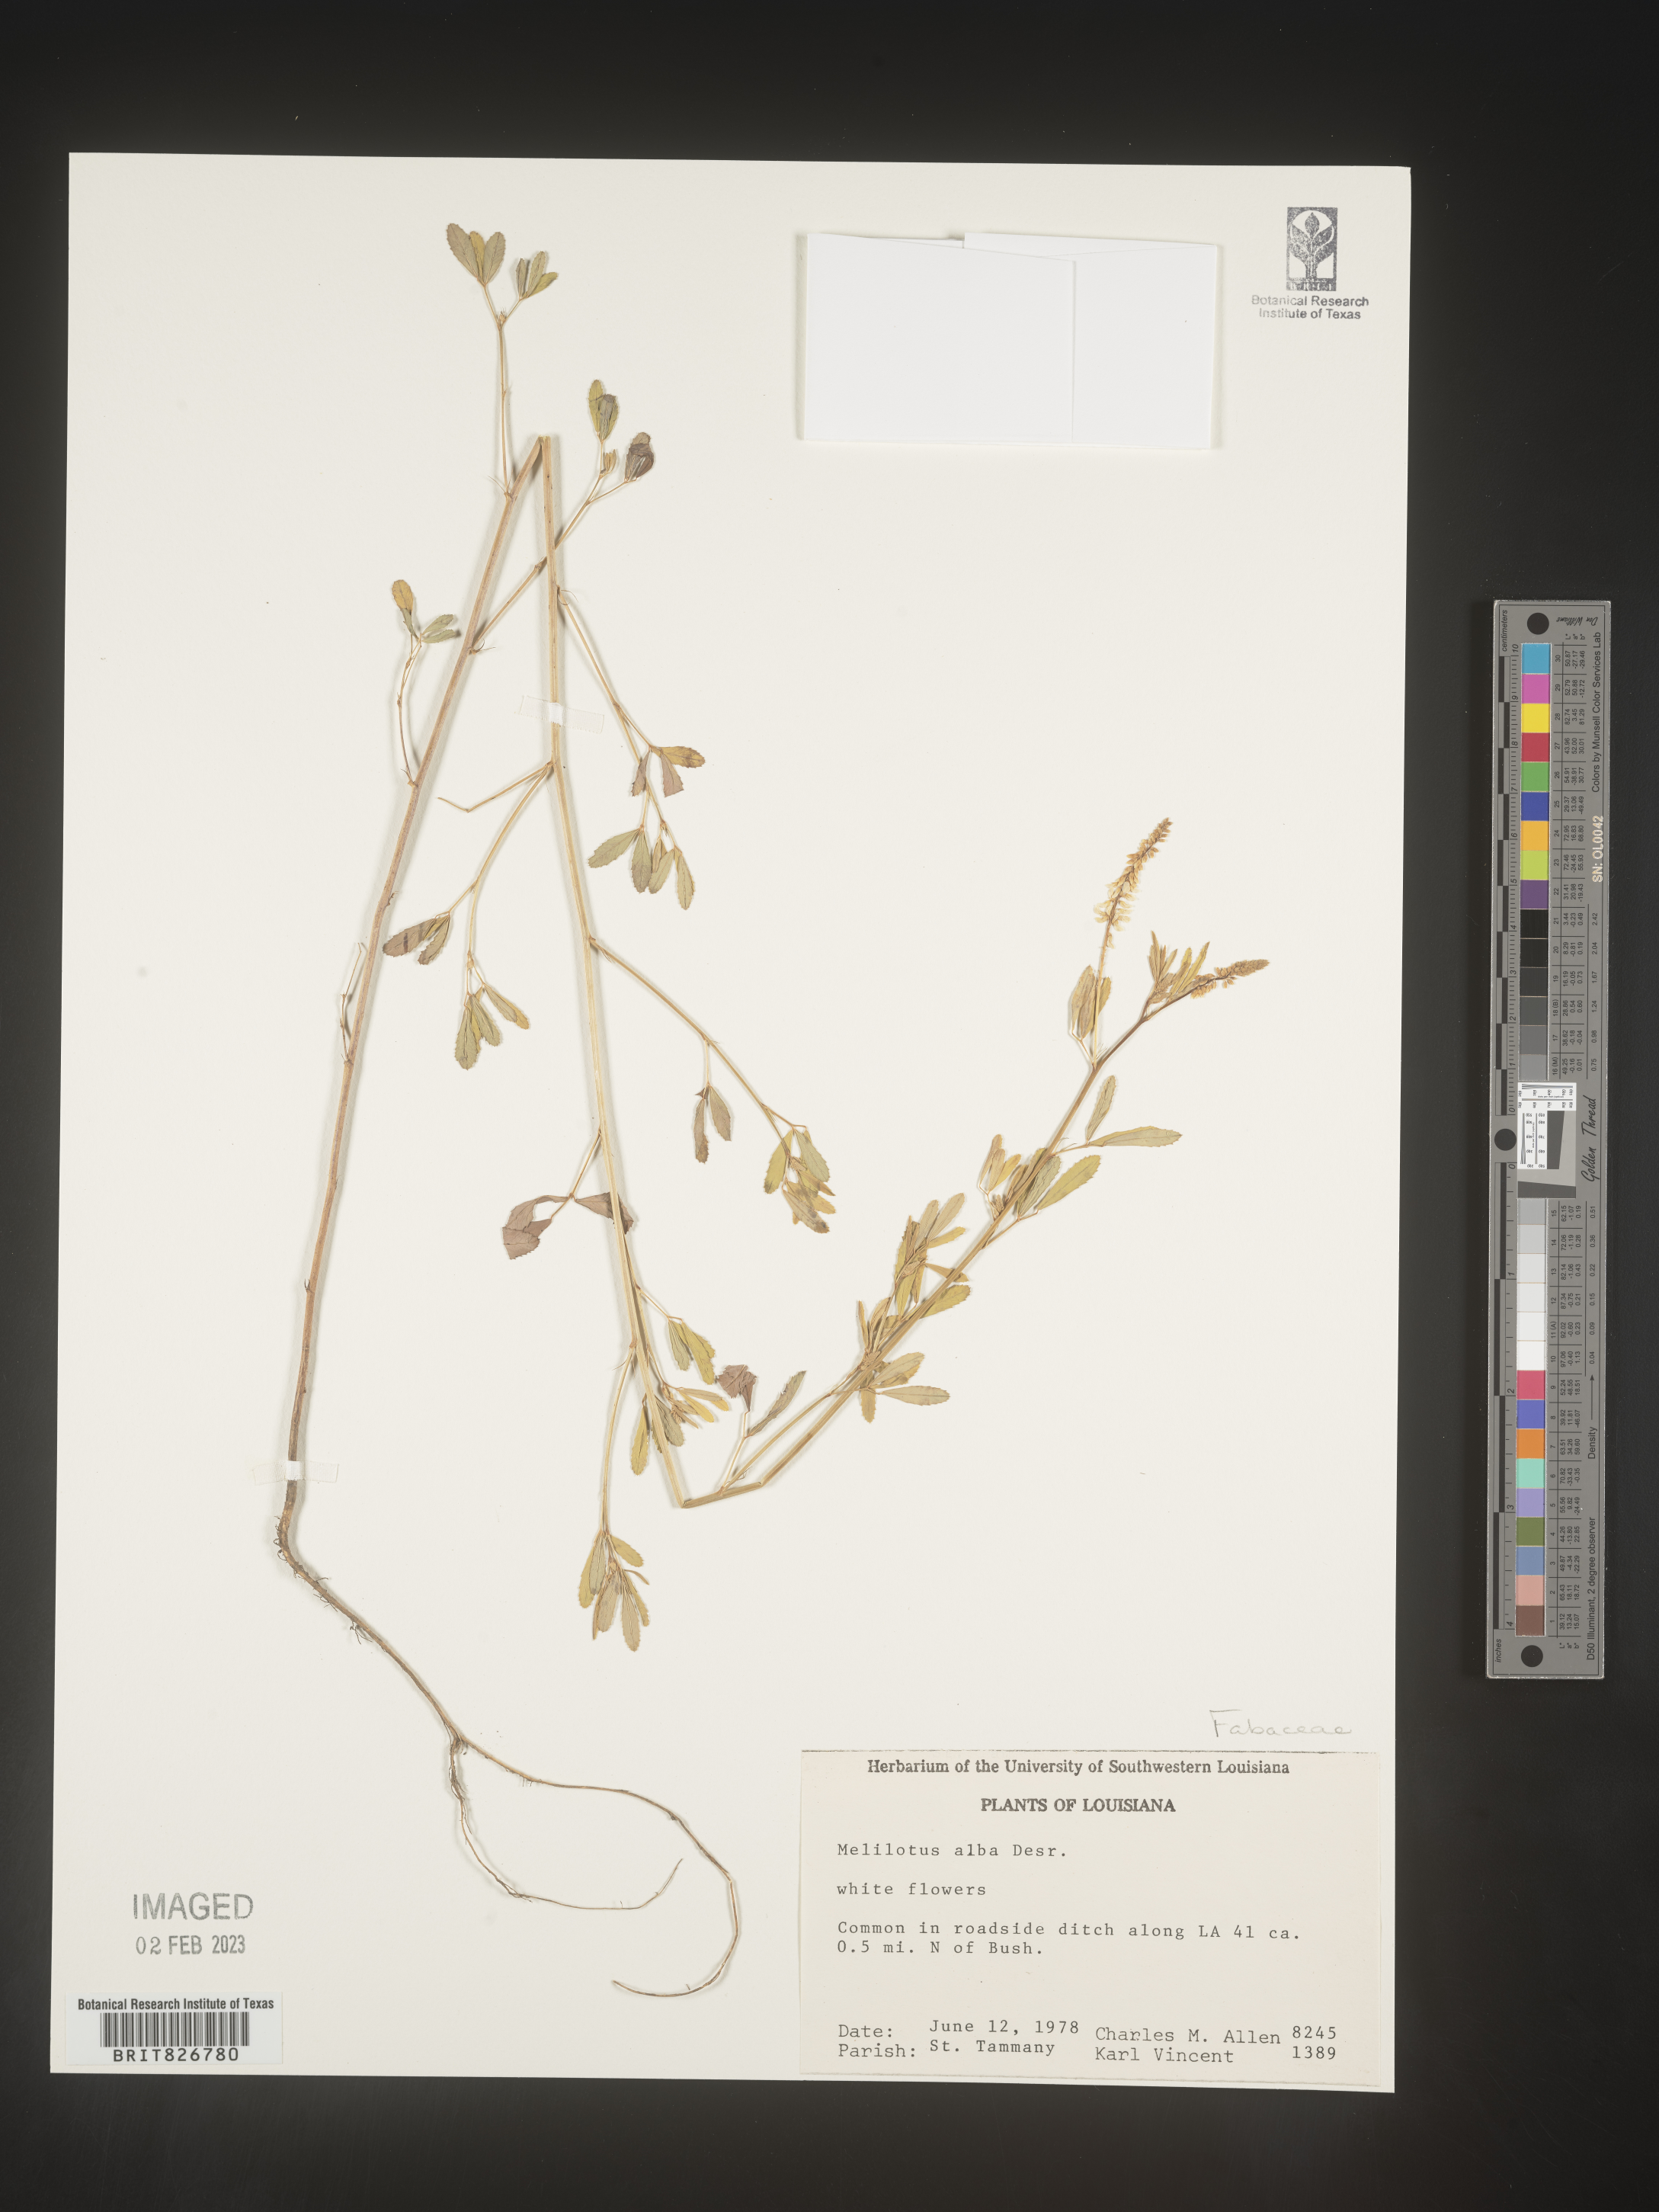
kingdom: Plantae
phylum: Tracheophyta
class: Magnoliopsida
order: Fabales
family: Fabaceae
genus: Melilotus
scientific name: Melilotus albus
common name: White melilot
